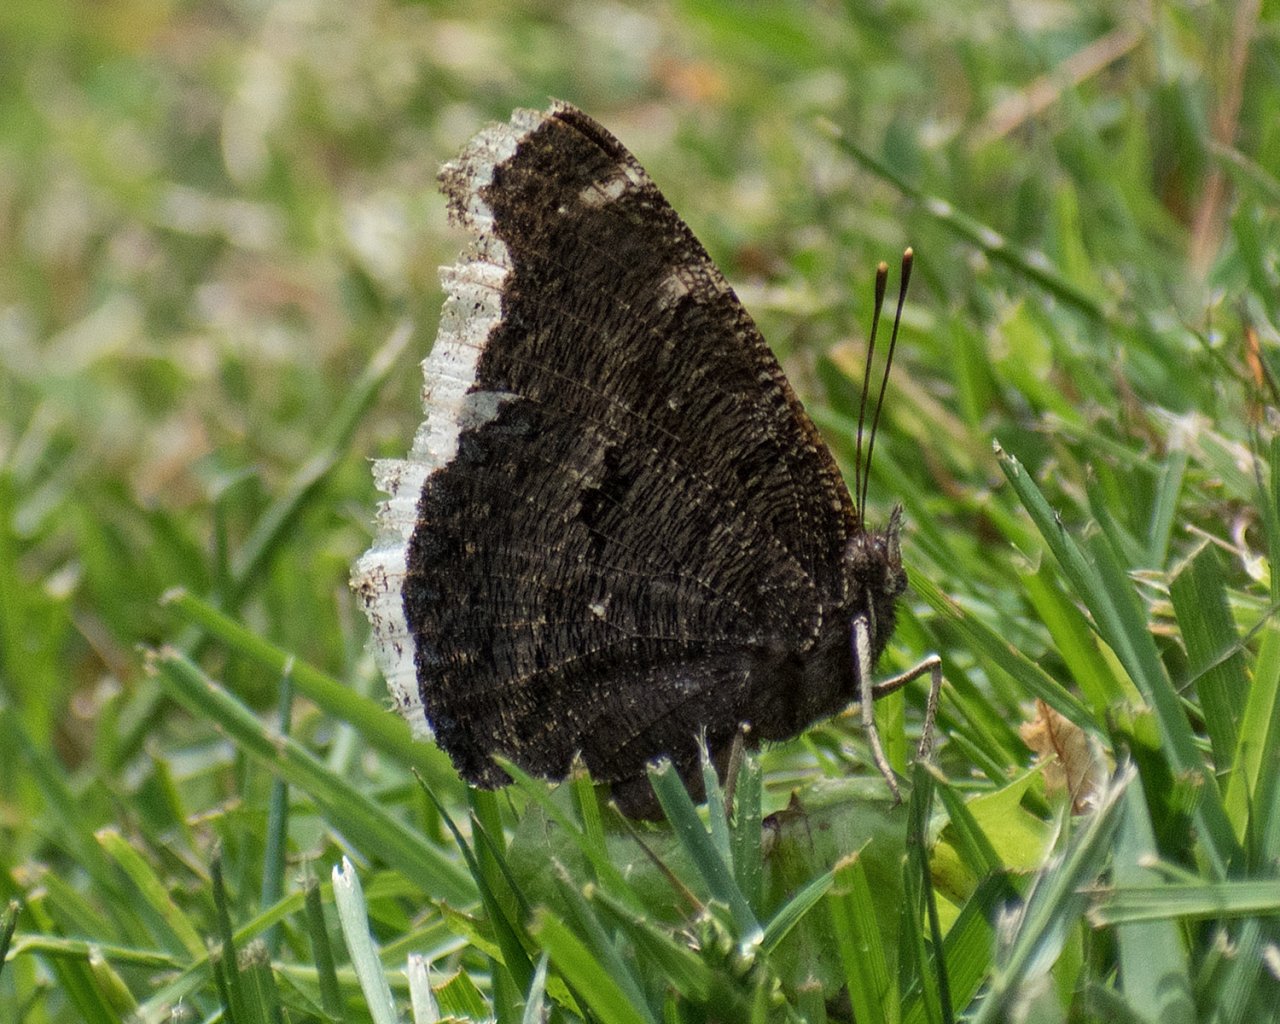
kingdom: Animalia
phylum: Arthropoda
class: Insecta
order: Lepidoptera
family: Nymphalidae
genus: Nymphalis
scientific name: Nymphalis antiopa
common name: Mourning Cloak
